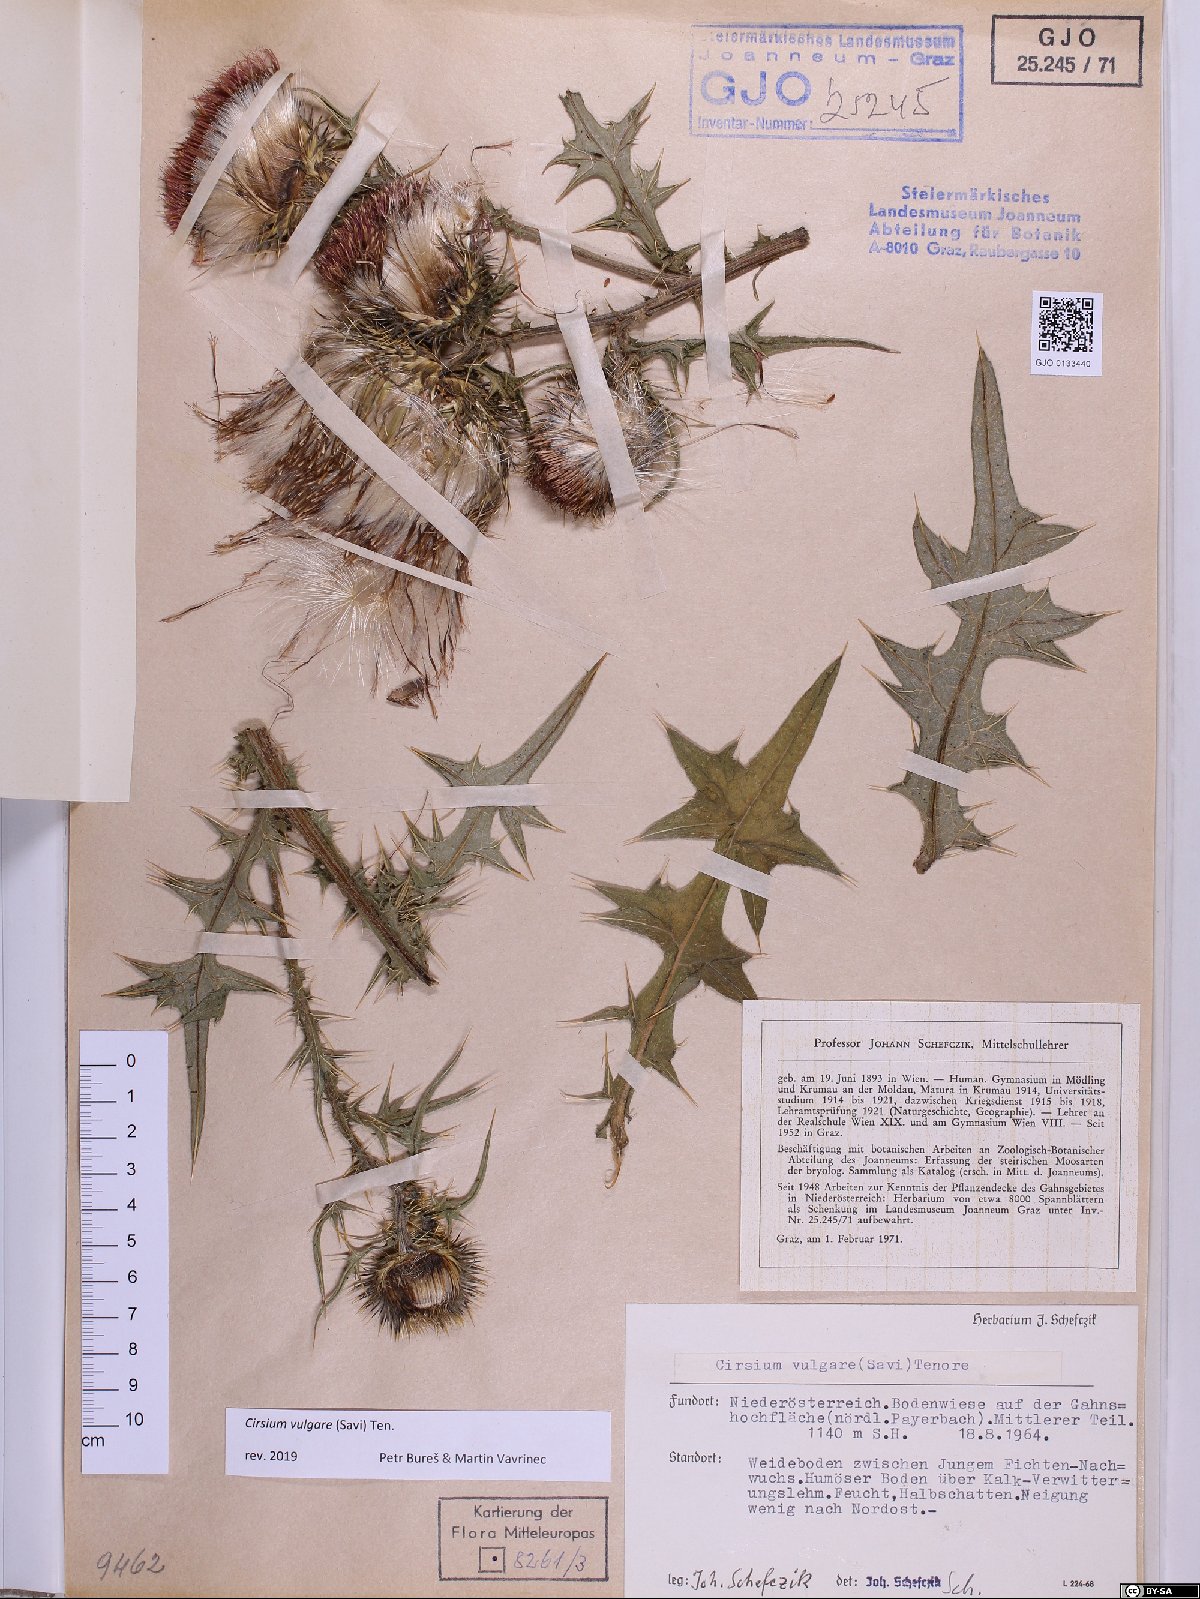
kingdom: Plantae
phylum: Tracheophyta
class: Magnoliopsida
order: Asterales
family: Asteraceae
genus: Cirsium
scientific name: Cirsium vulgare
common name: Bull thistle
